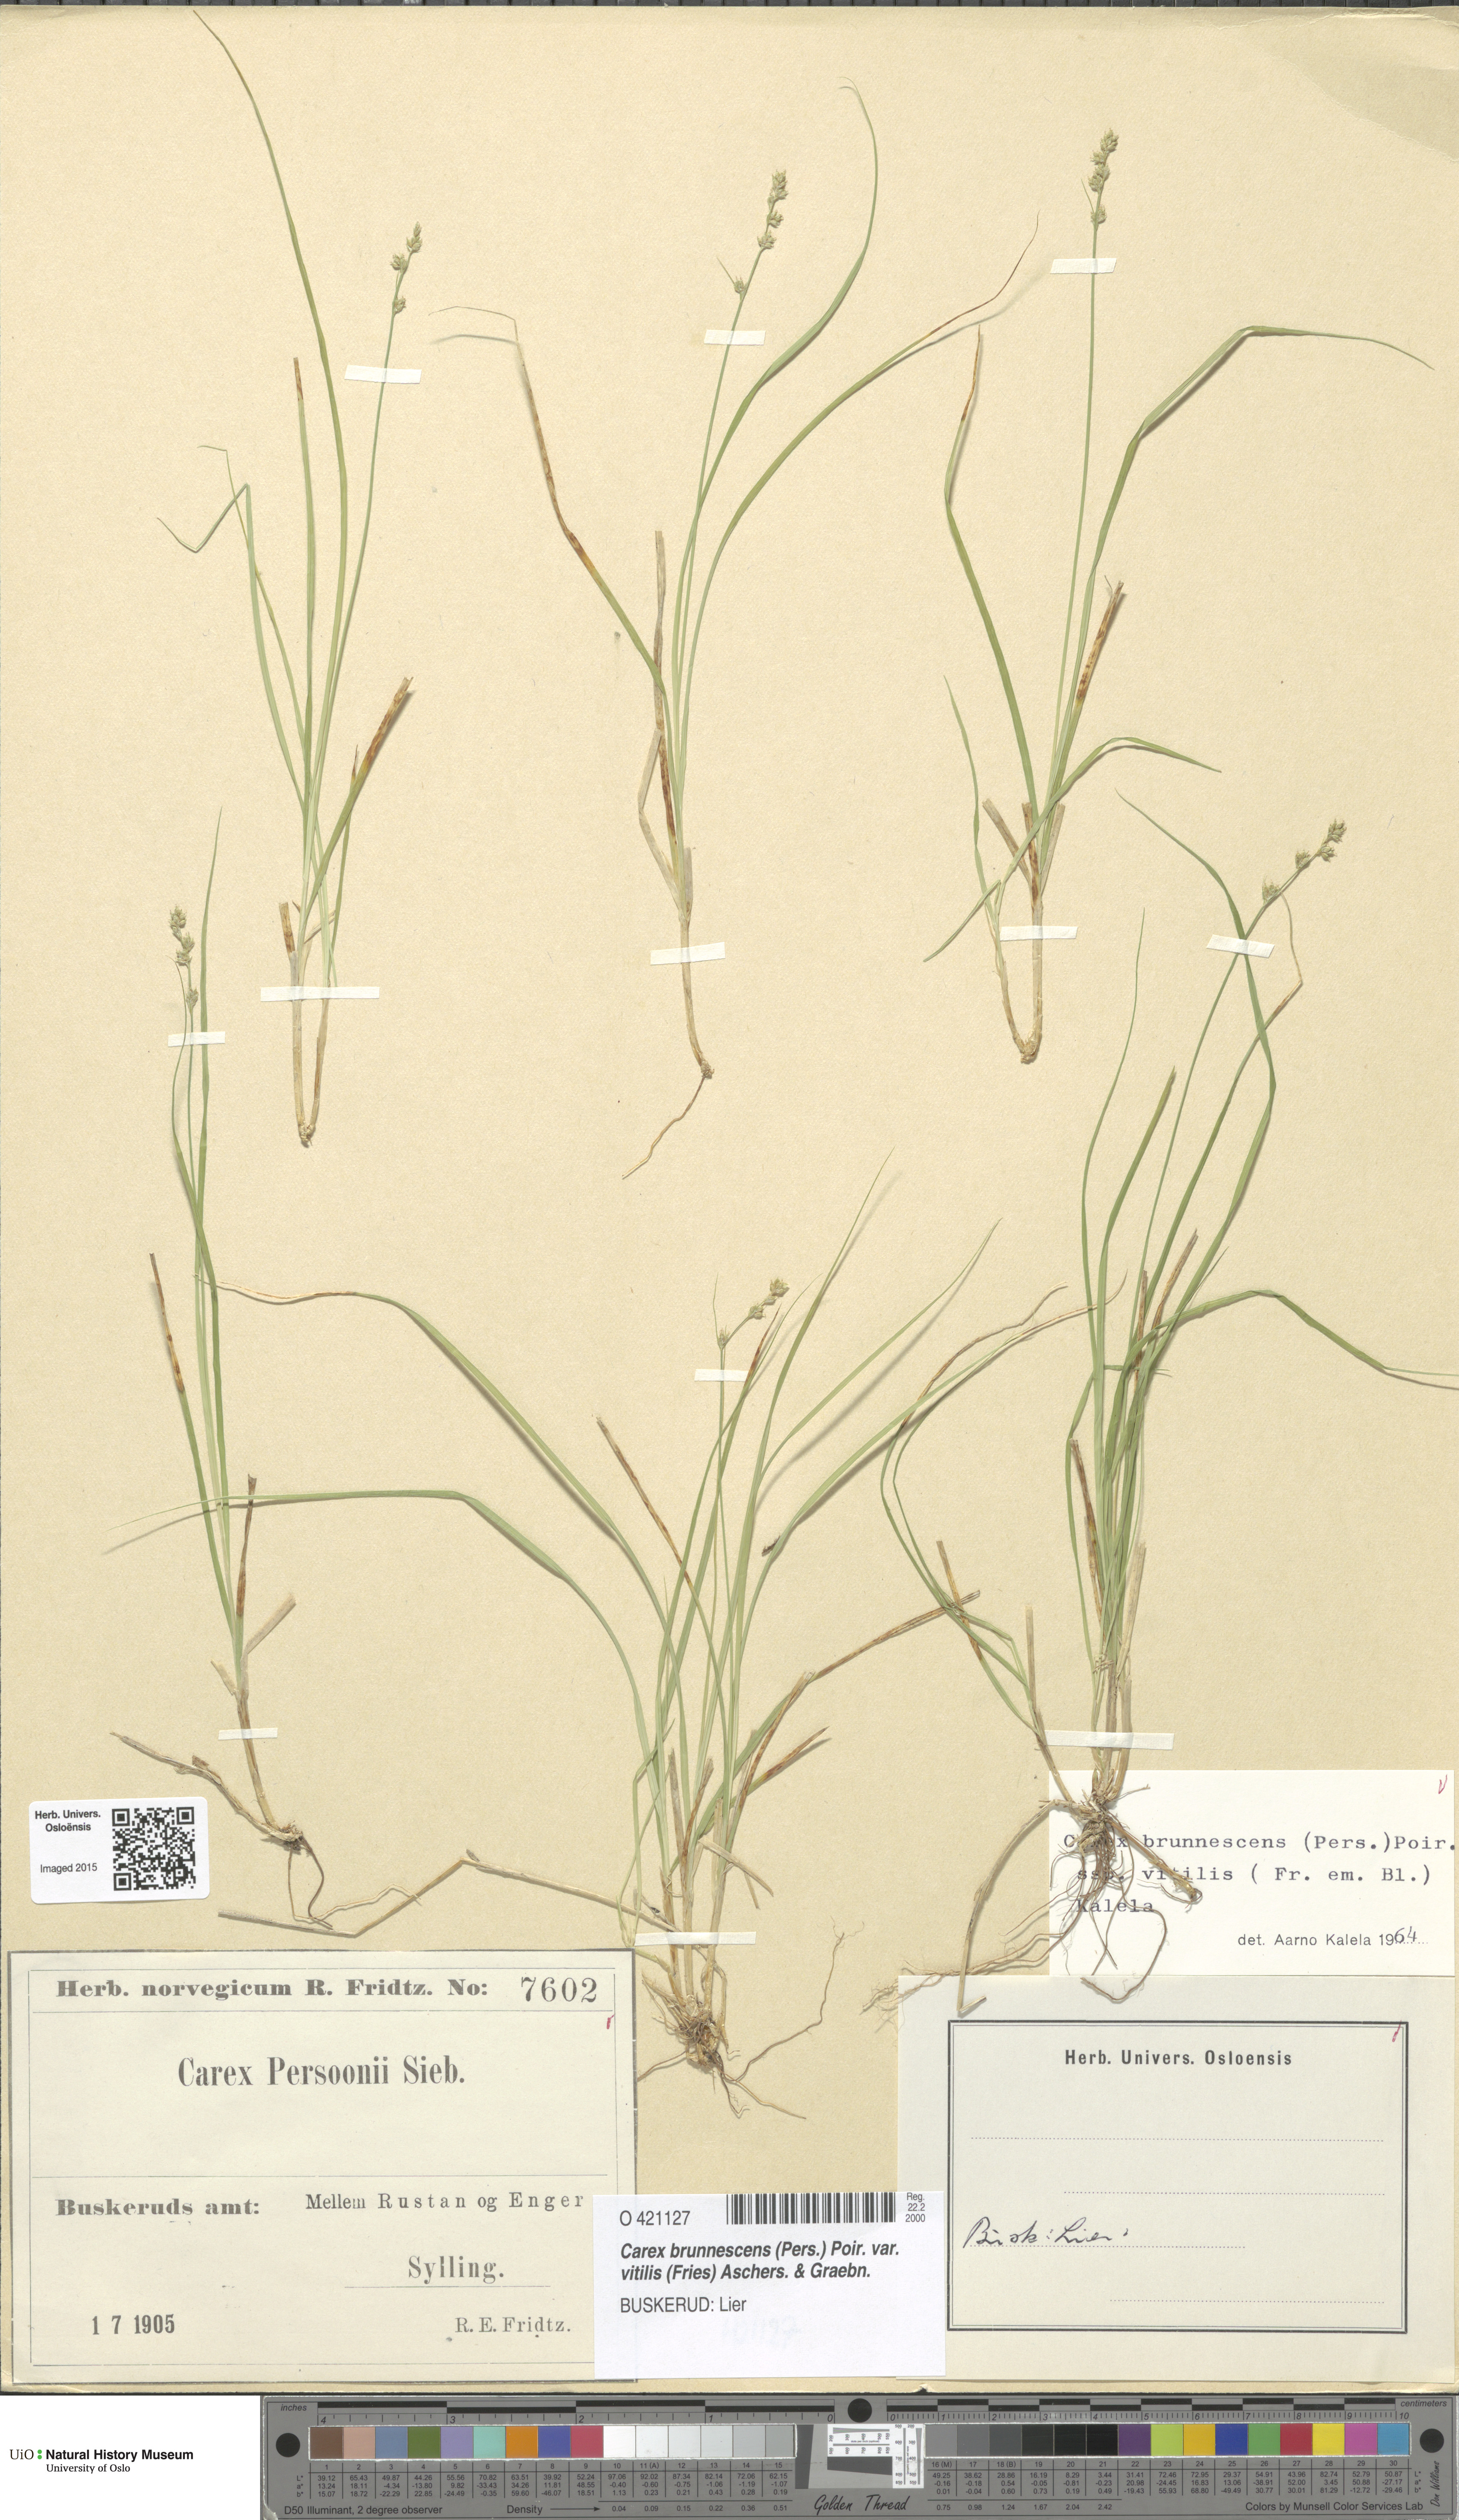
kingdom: Plantae
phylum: Tracheophyta
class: Liliopsida
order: Poales
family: Cyperaceae
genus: Carex
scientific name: Carex brunnescens
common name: Brown sedge
